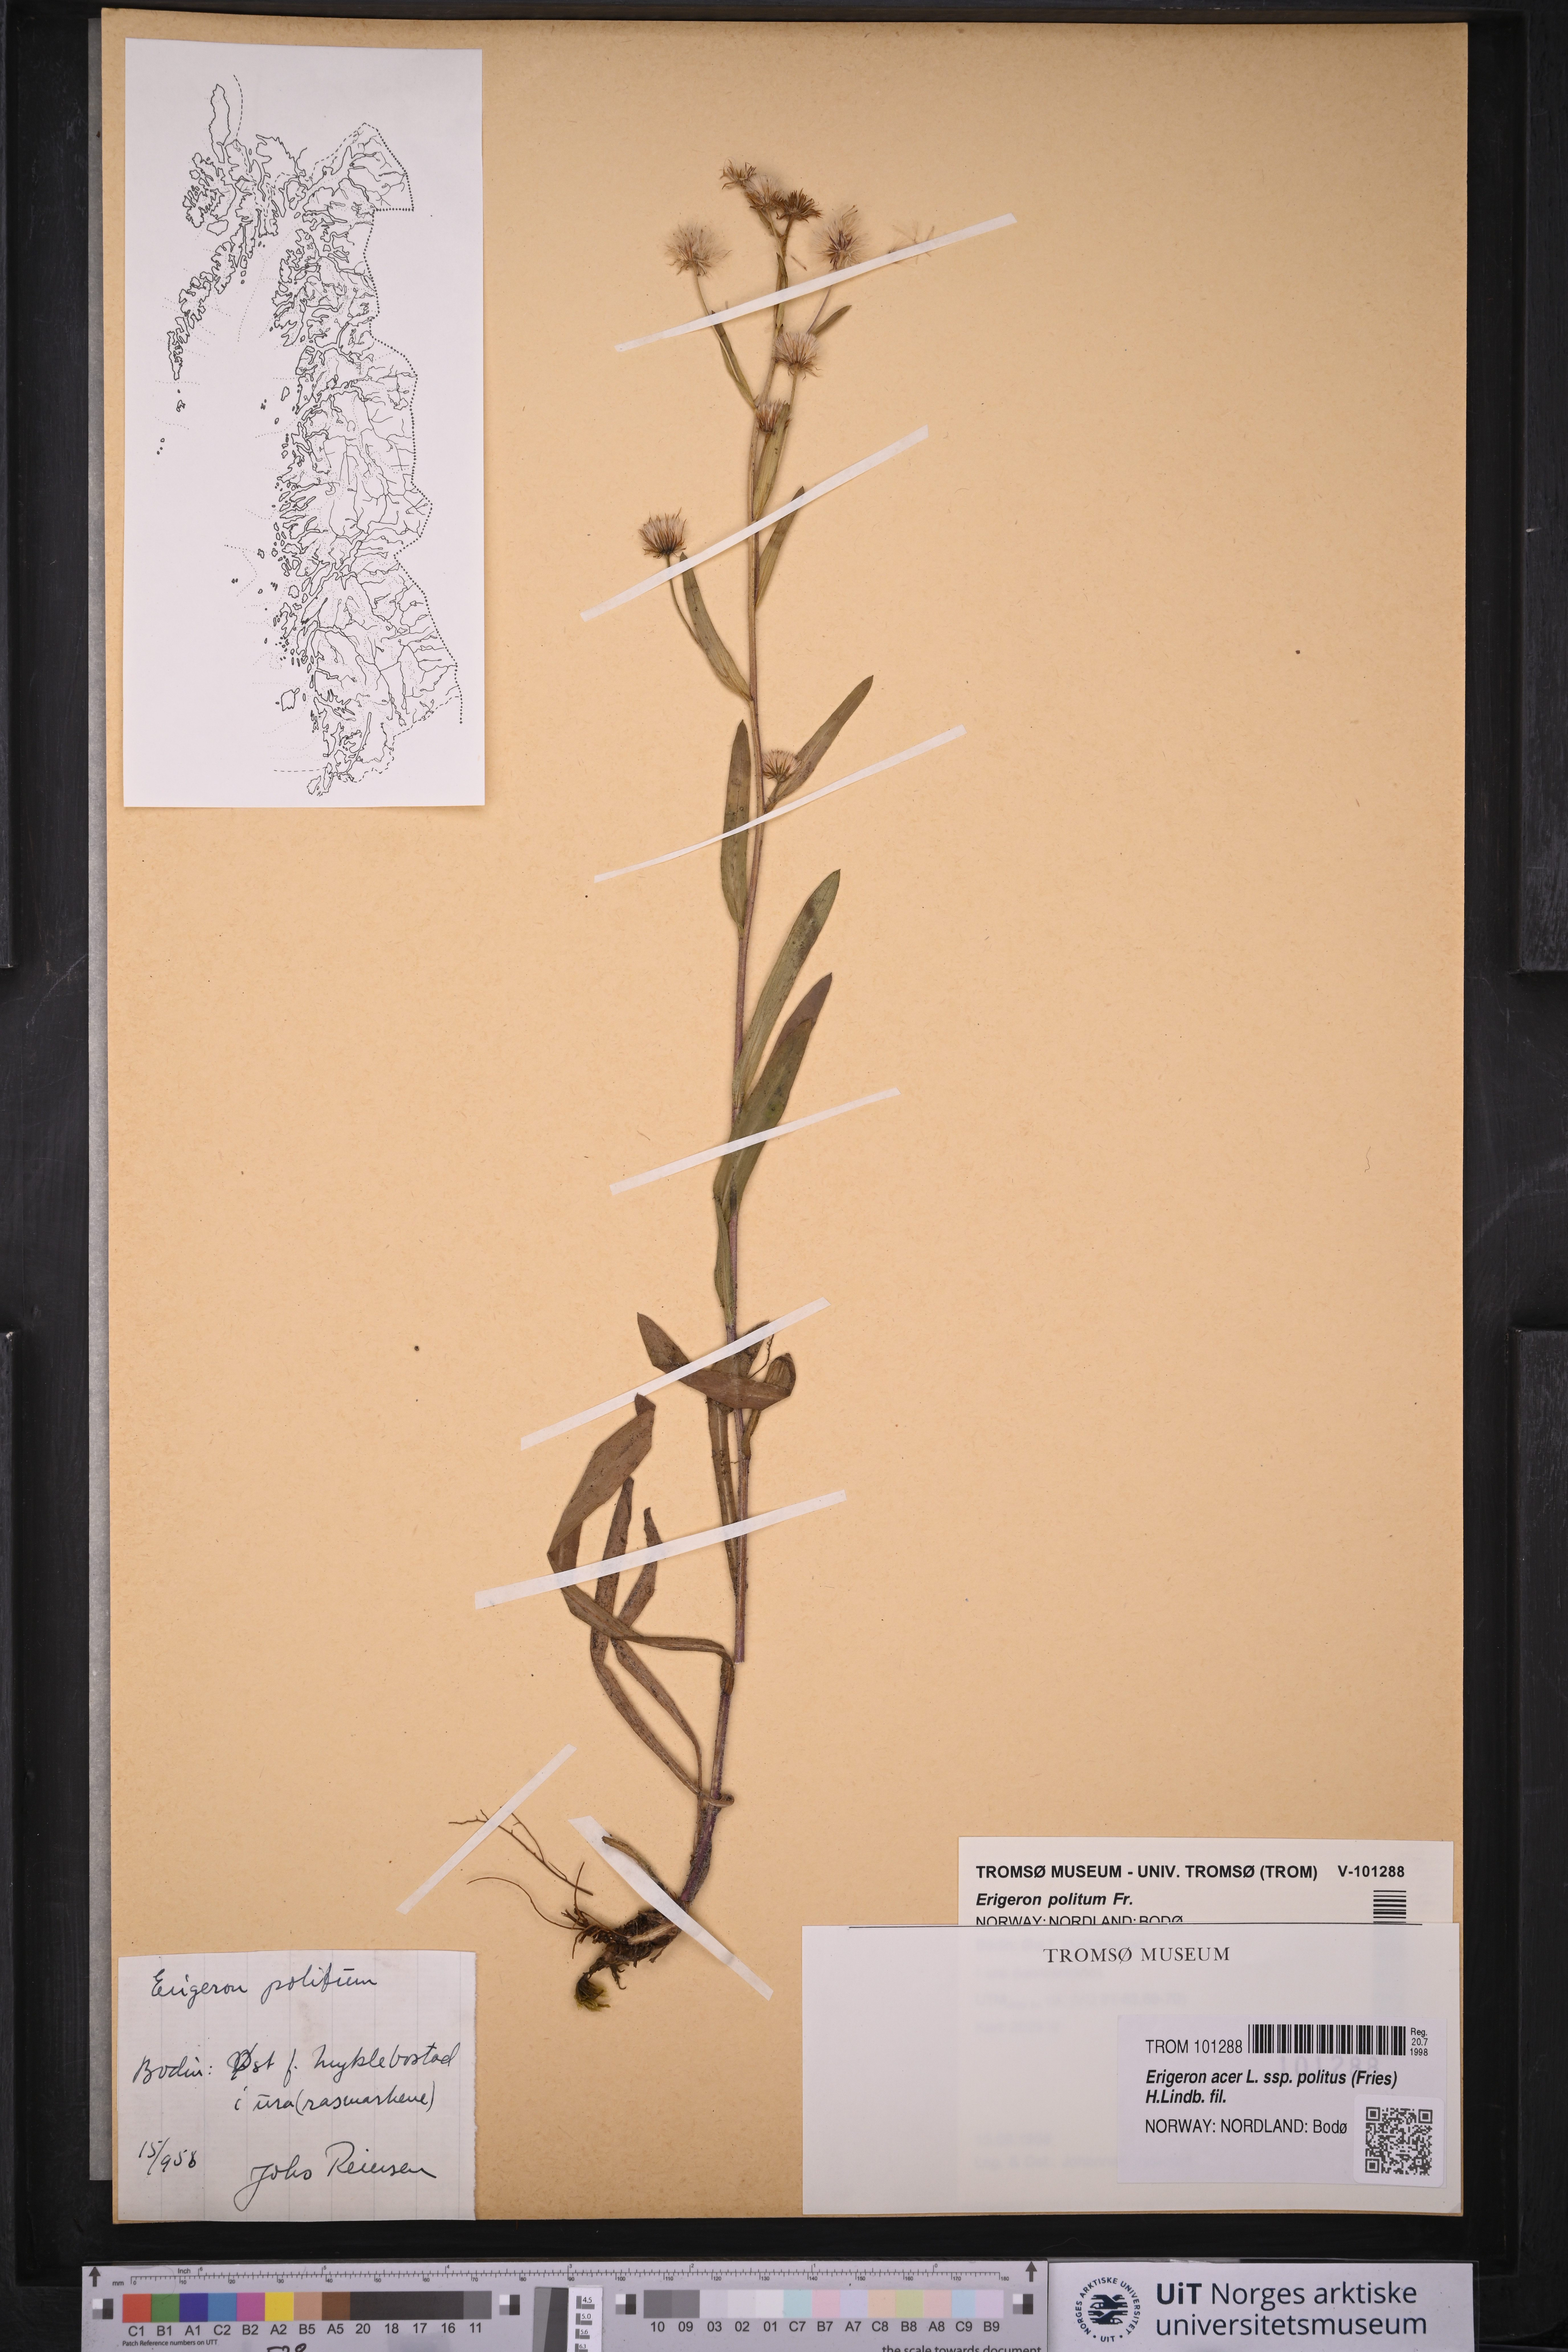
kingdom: Plantae
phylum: Tracheophyta
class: Magnoliopsida
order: Asterales
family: Asteraceae
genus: Erigeron
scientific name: Erigeron politus
